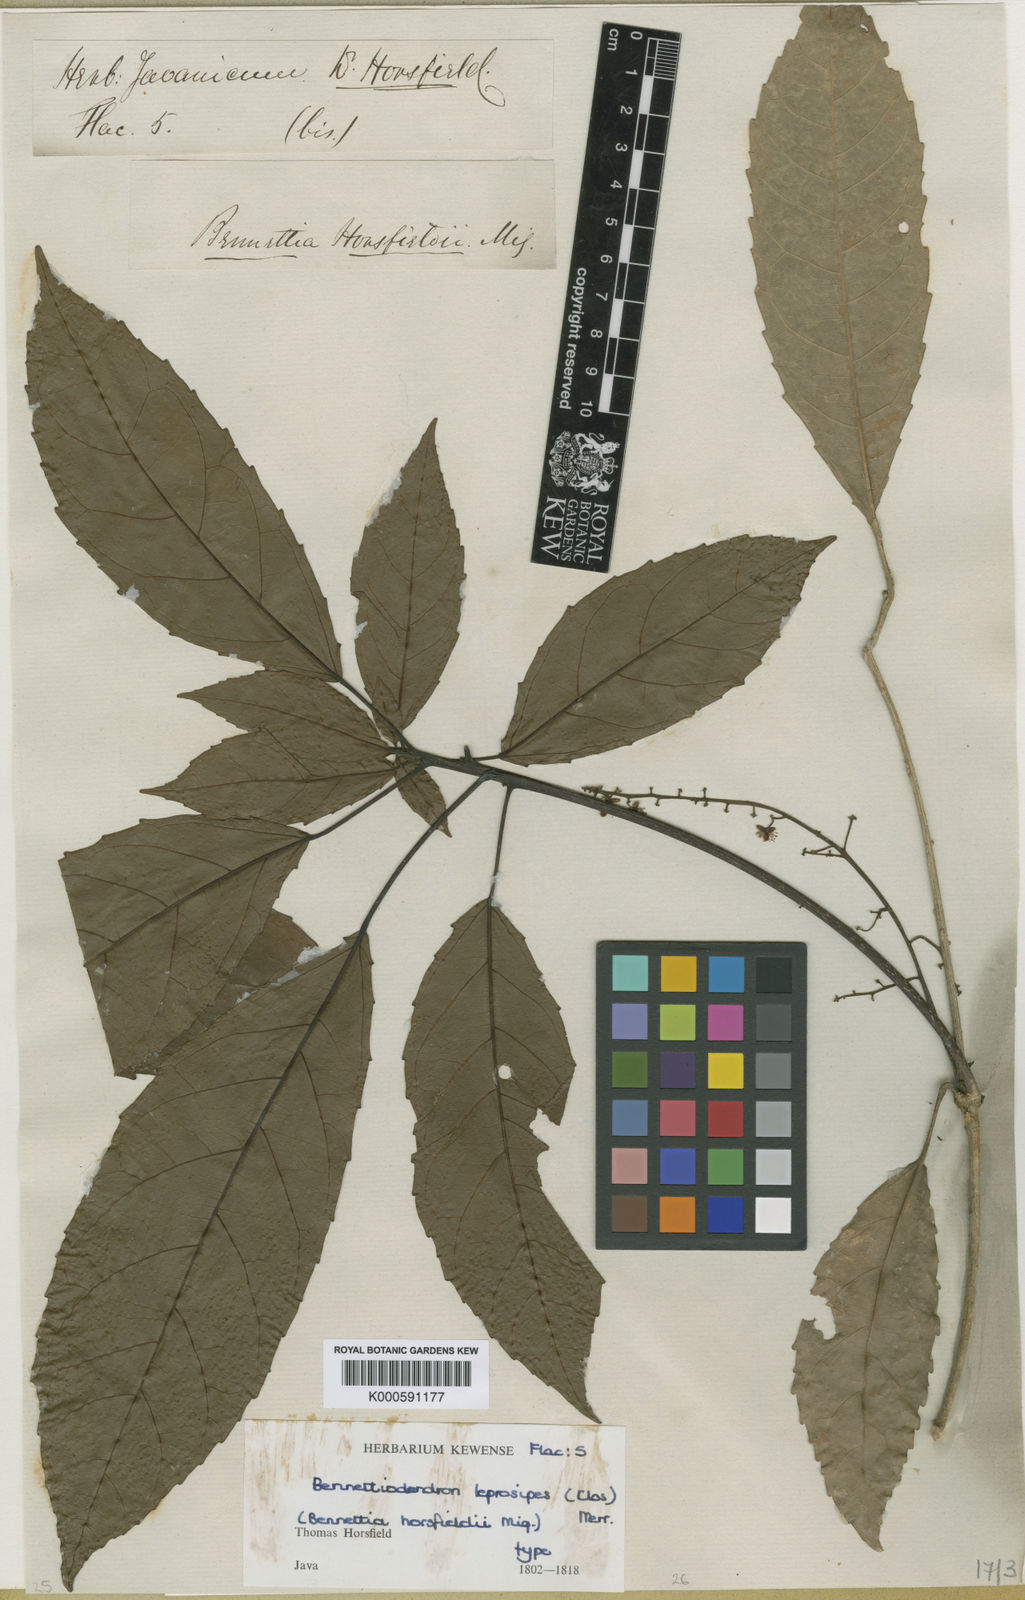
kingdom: Plantae
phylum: Tracheophyta
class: Magnoliopsida
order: Malpighiales
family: Salicaceae
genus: Bennettiodendron
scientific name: Bennettiodendron leprosipes
